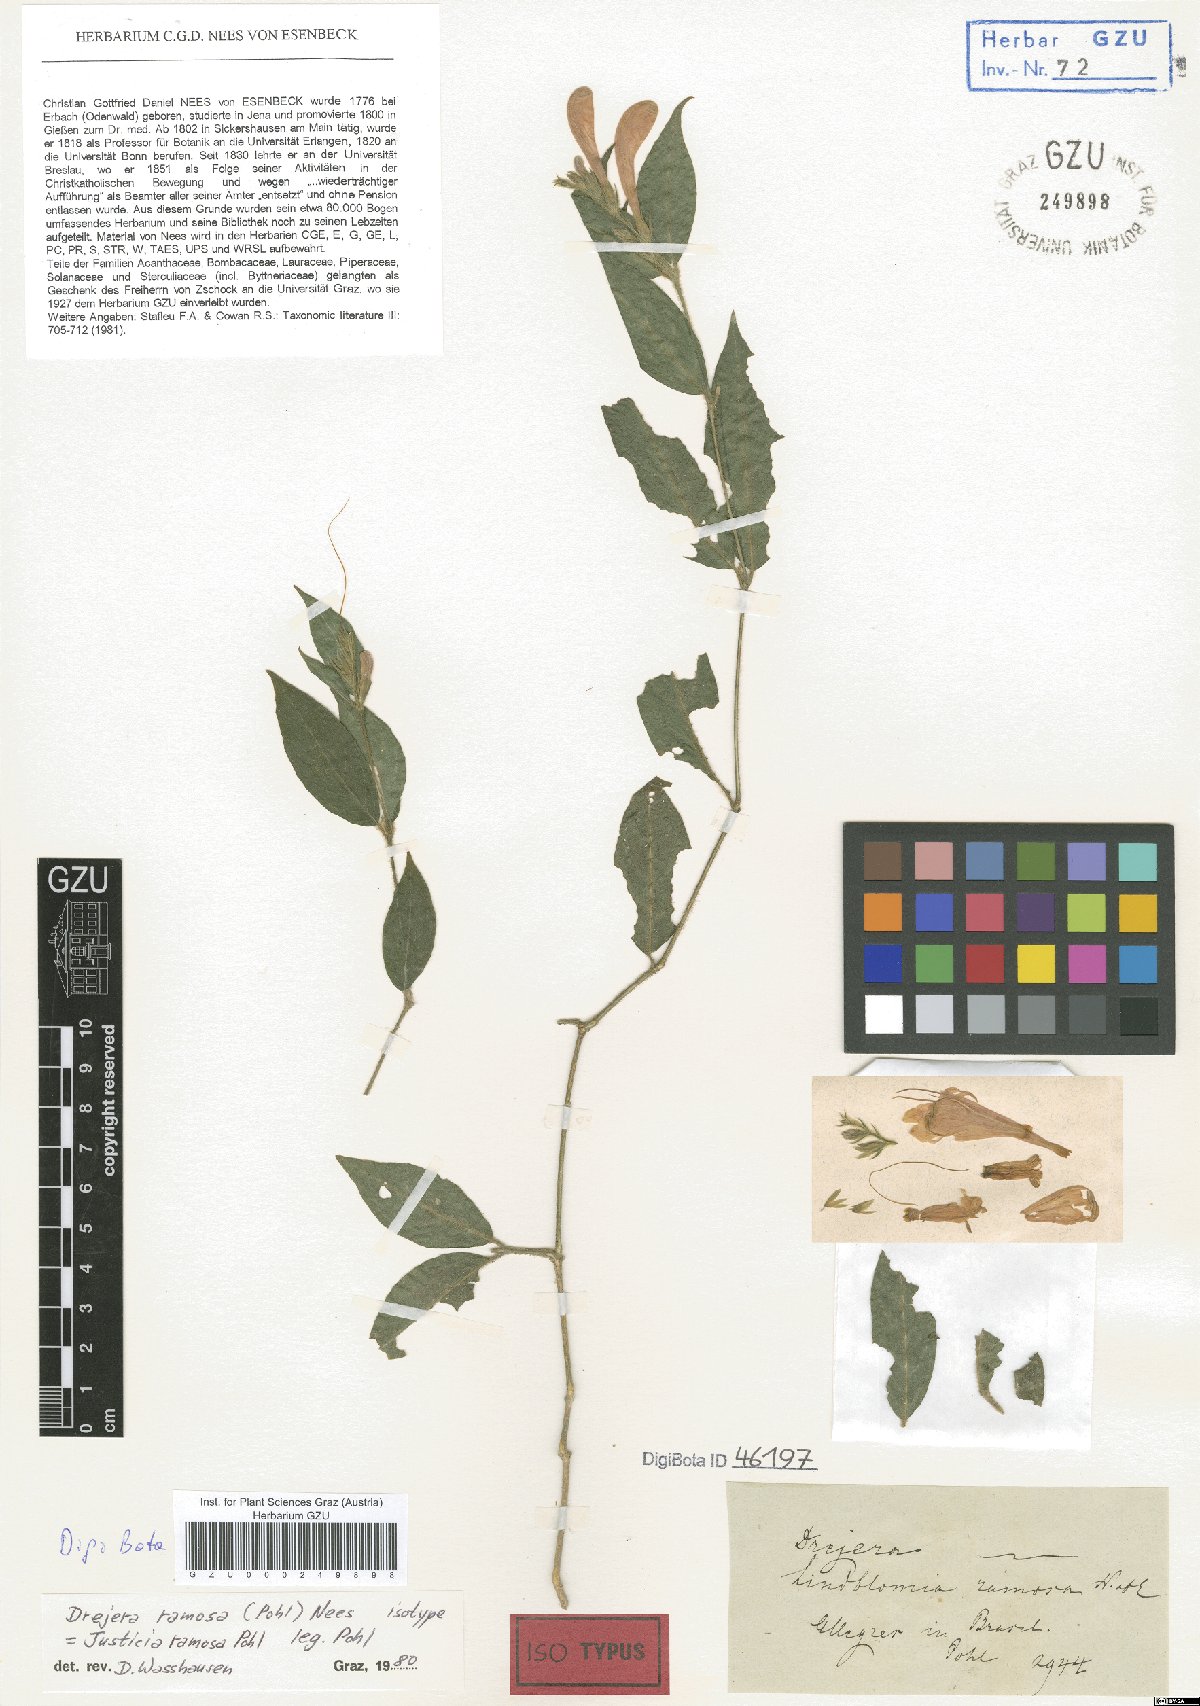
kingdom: Plantae
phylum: Tracheophyta
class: Magnoliopsida
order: Lamiales
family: Acanthaceae
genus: Thyrsacanthus
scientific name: Thyrsacanthus ramosus
